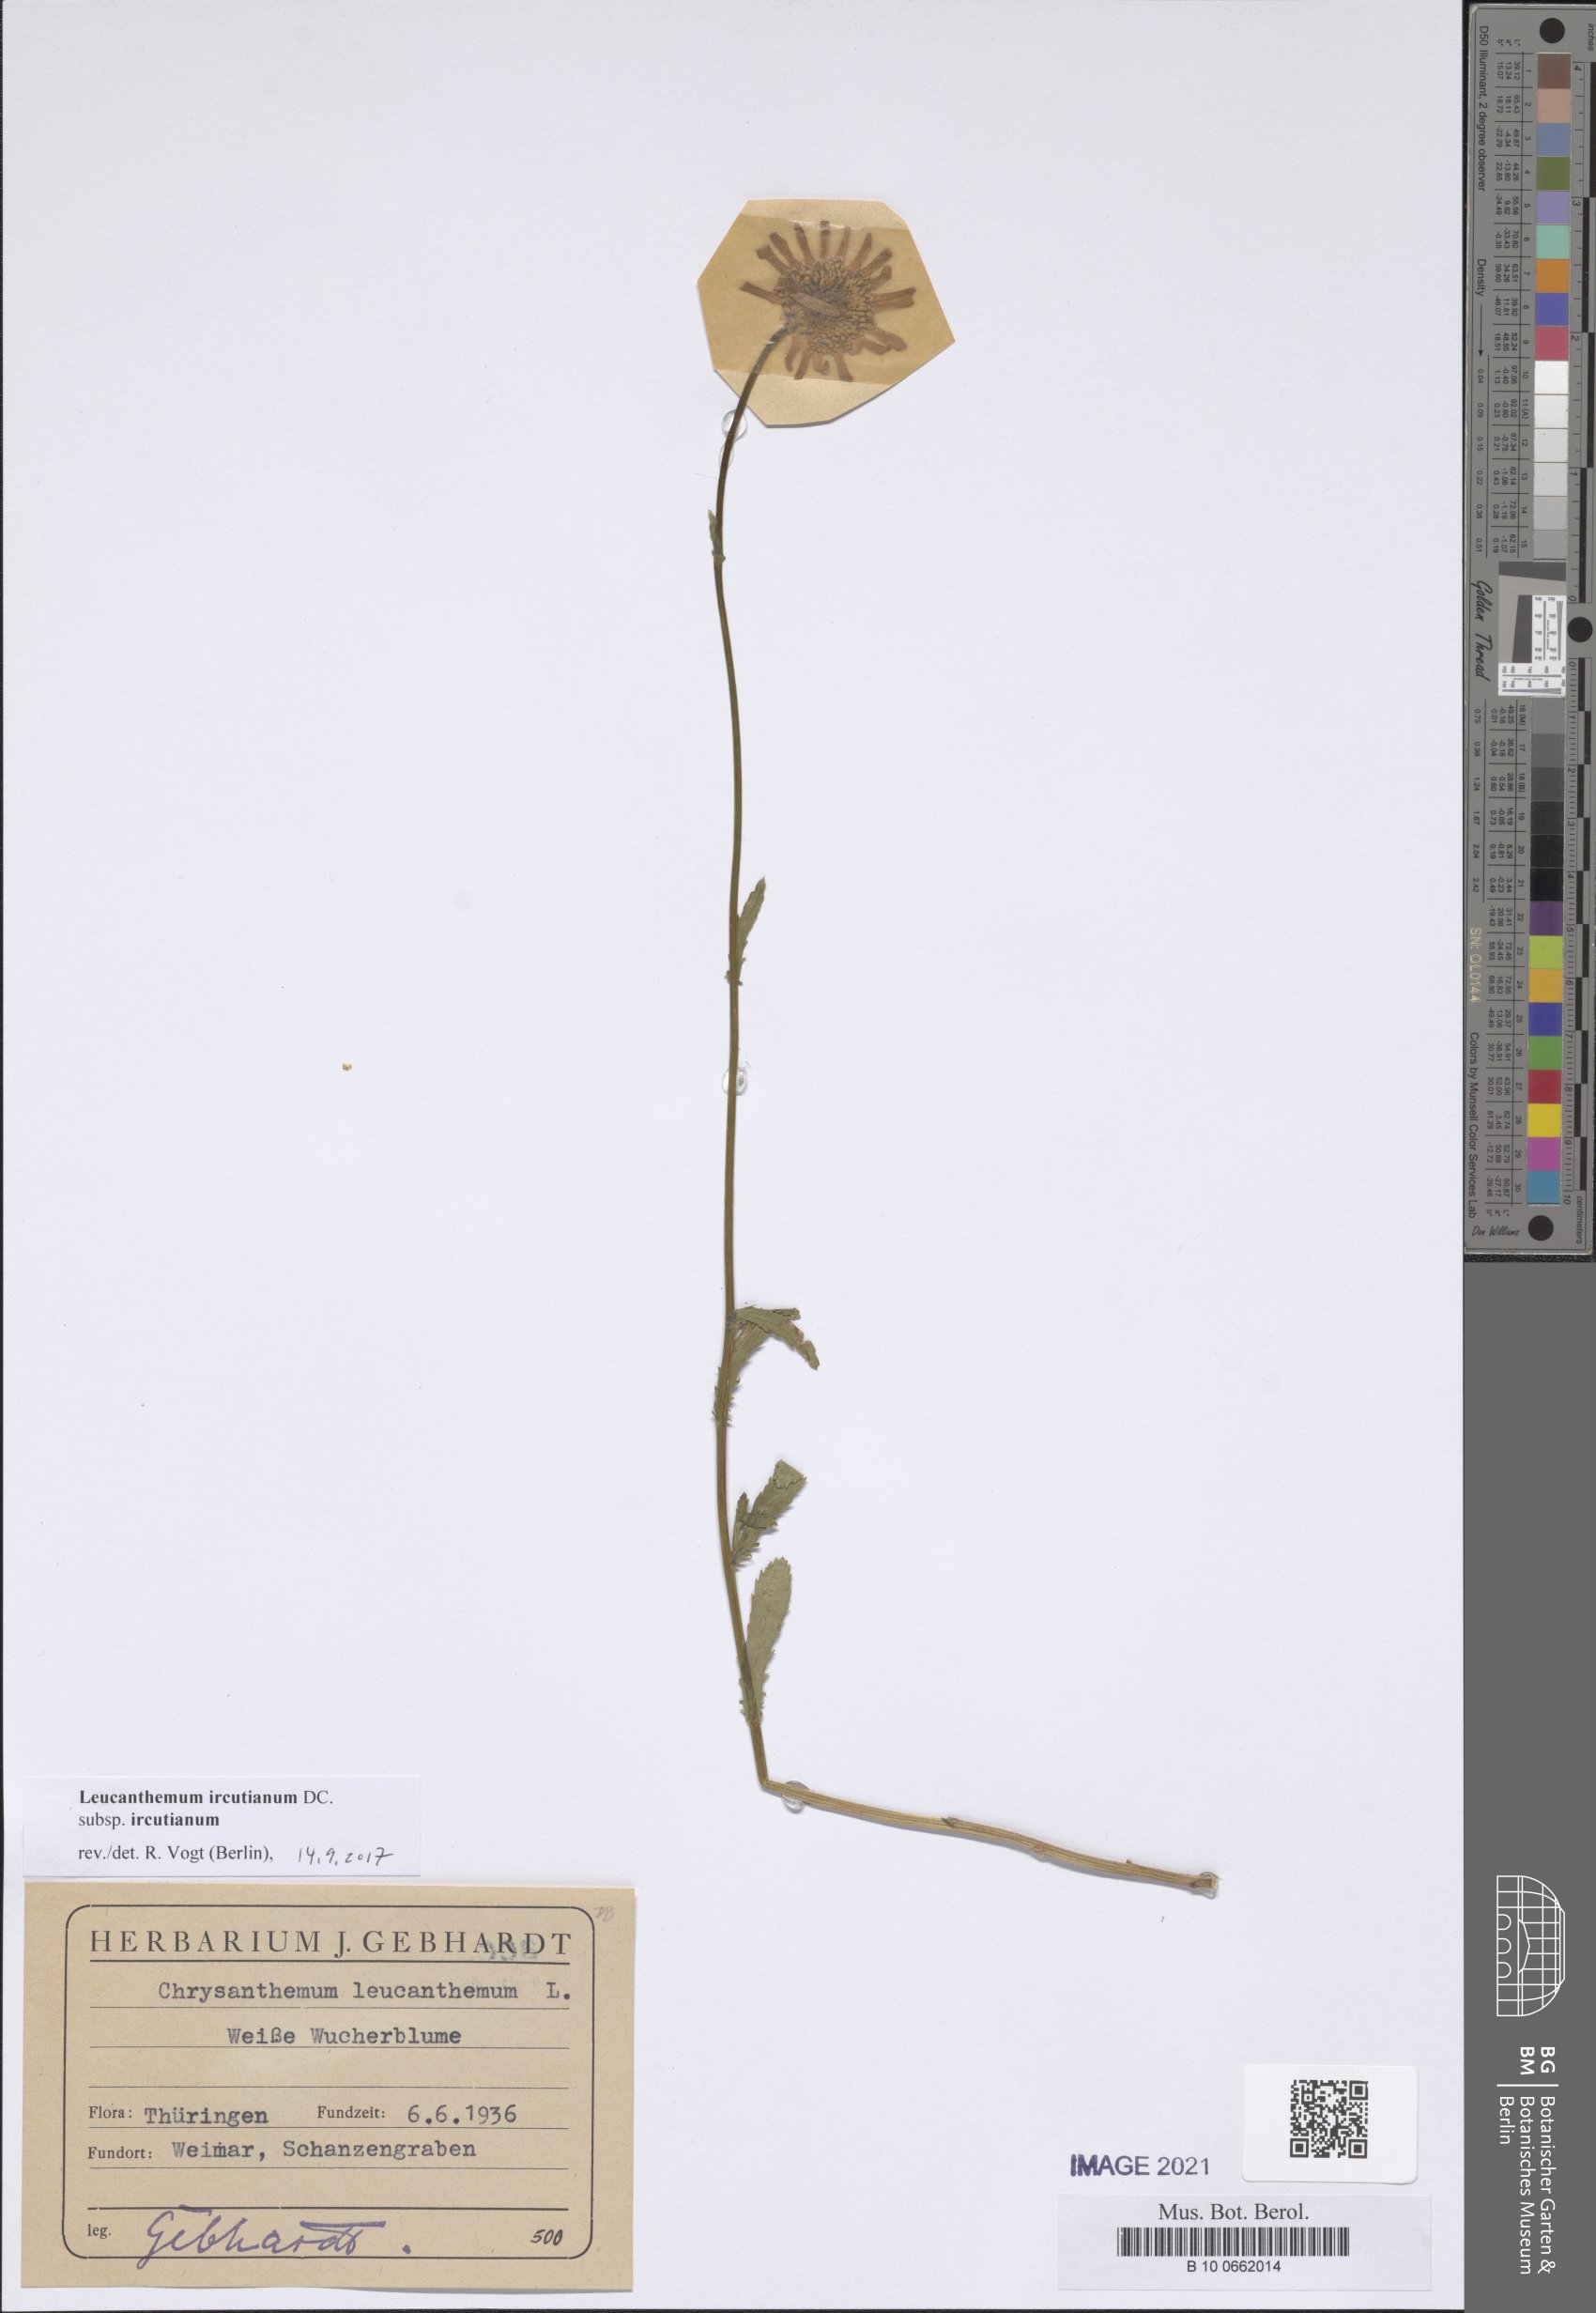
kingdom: Plantae
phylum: Tracheophyta
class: Magnoliopsida
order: Asterales
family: Asteraceae
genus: Leucanthemum
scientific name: Leucanthemum ircutianum
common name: Daisy
